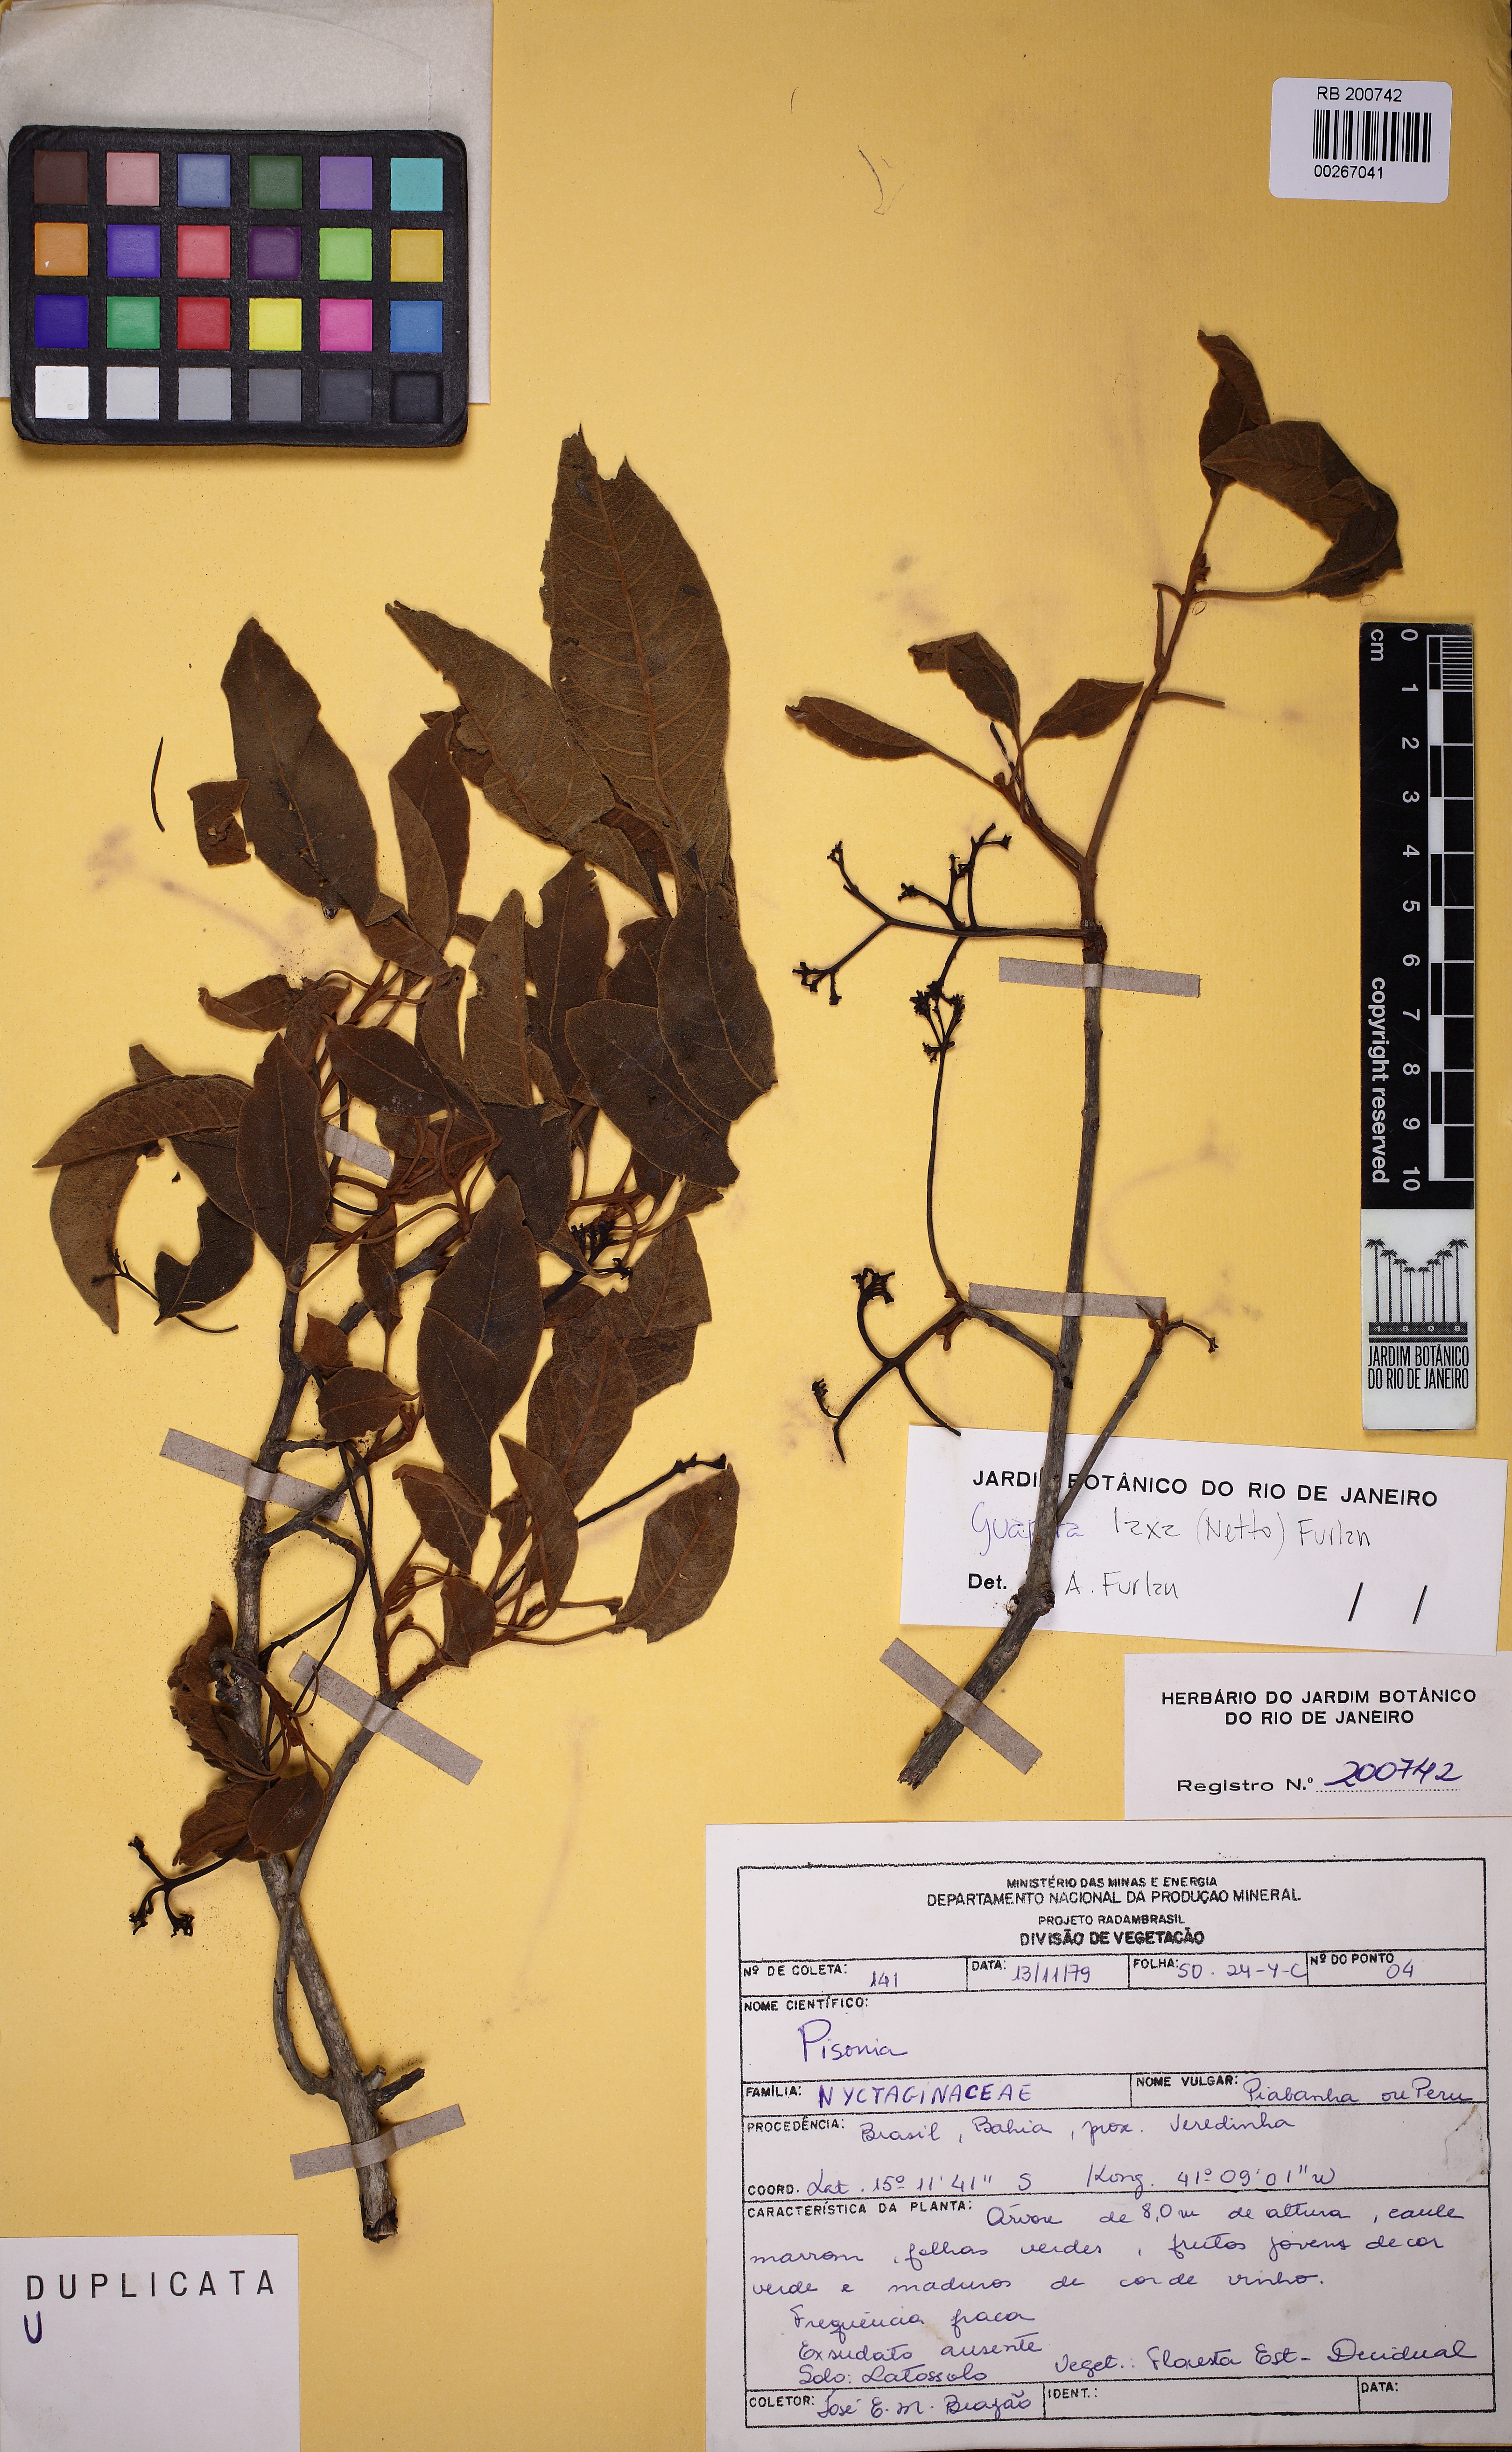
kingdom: Plantae
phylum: Tracheophyta
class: Magnoliopsida
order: Caryophyllales
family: Nyctaginaceae
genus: Guapira
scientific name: Guapira laxa
